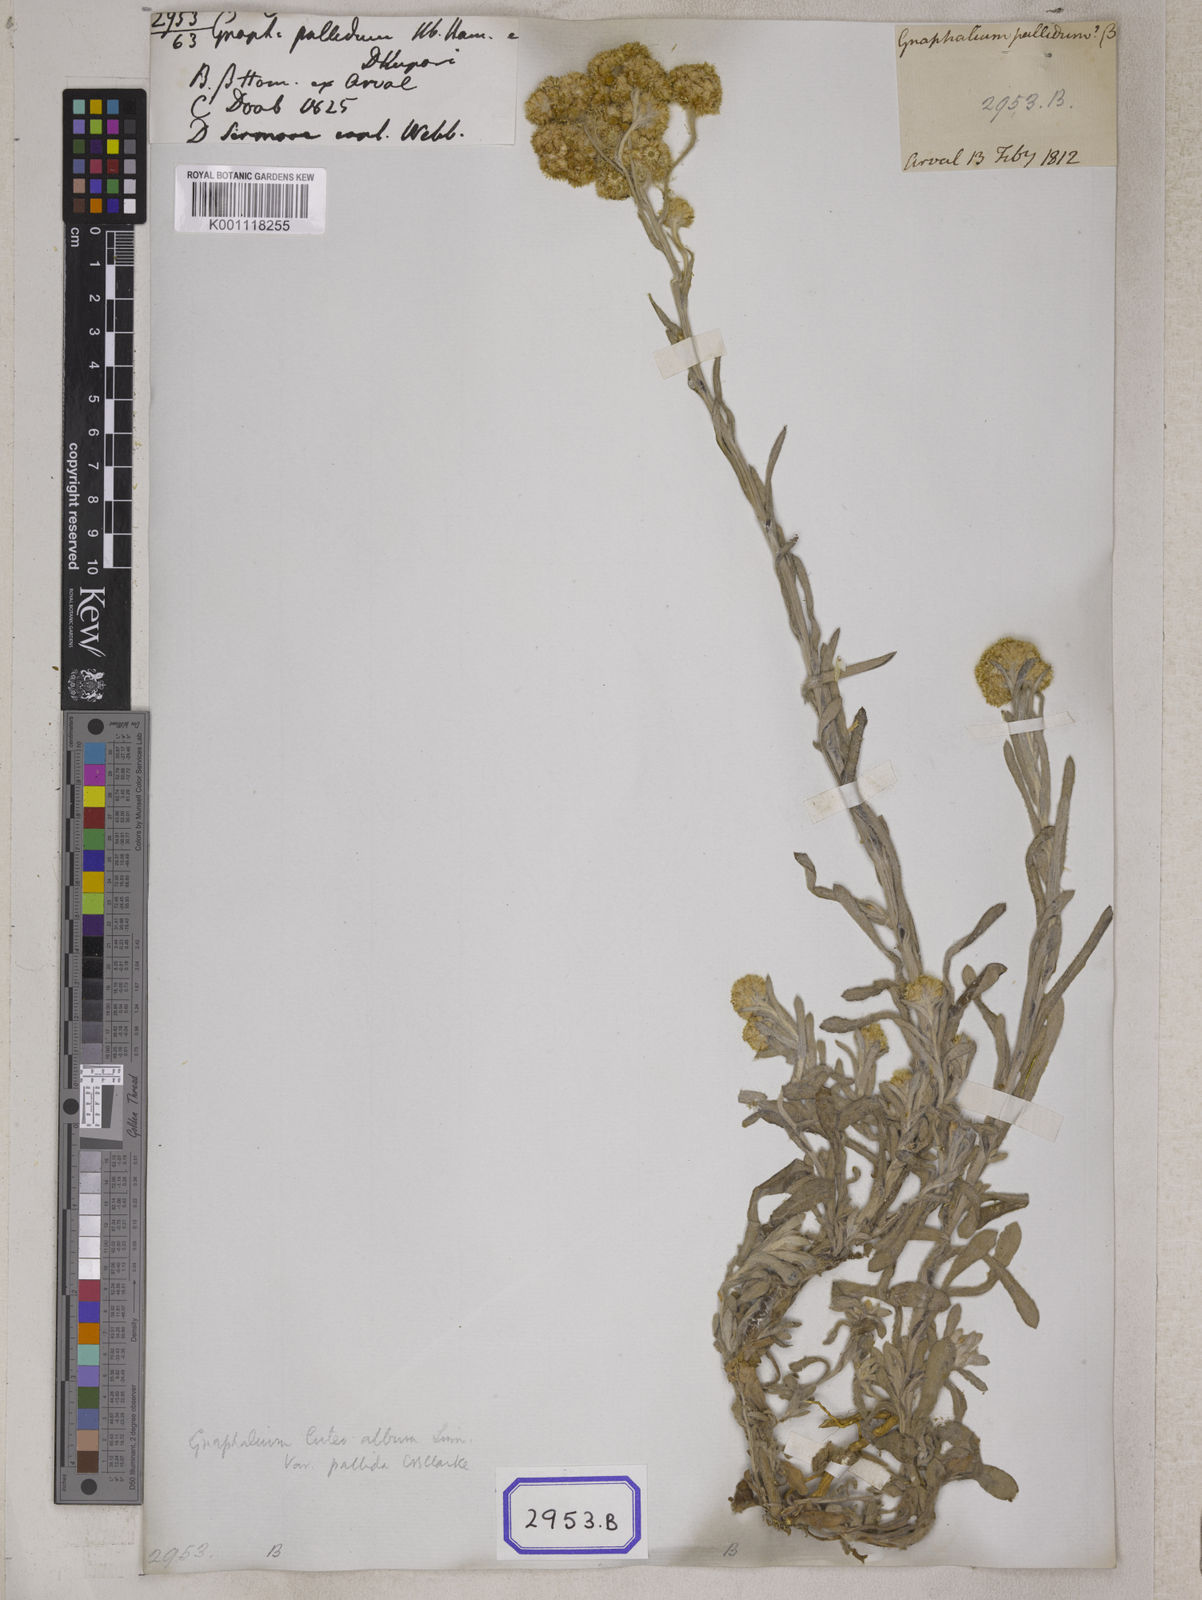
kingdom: Plantae
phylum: Tracheophyta
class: Magnoliopsida
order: Asterales
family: Asteraceae
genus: Helichrysum
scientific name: Helichrysum luteoalbum
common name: Daisy
